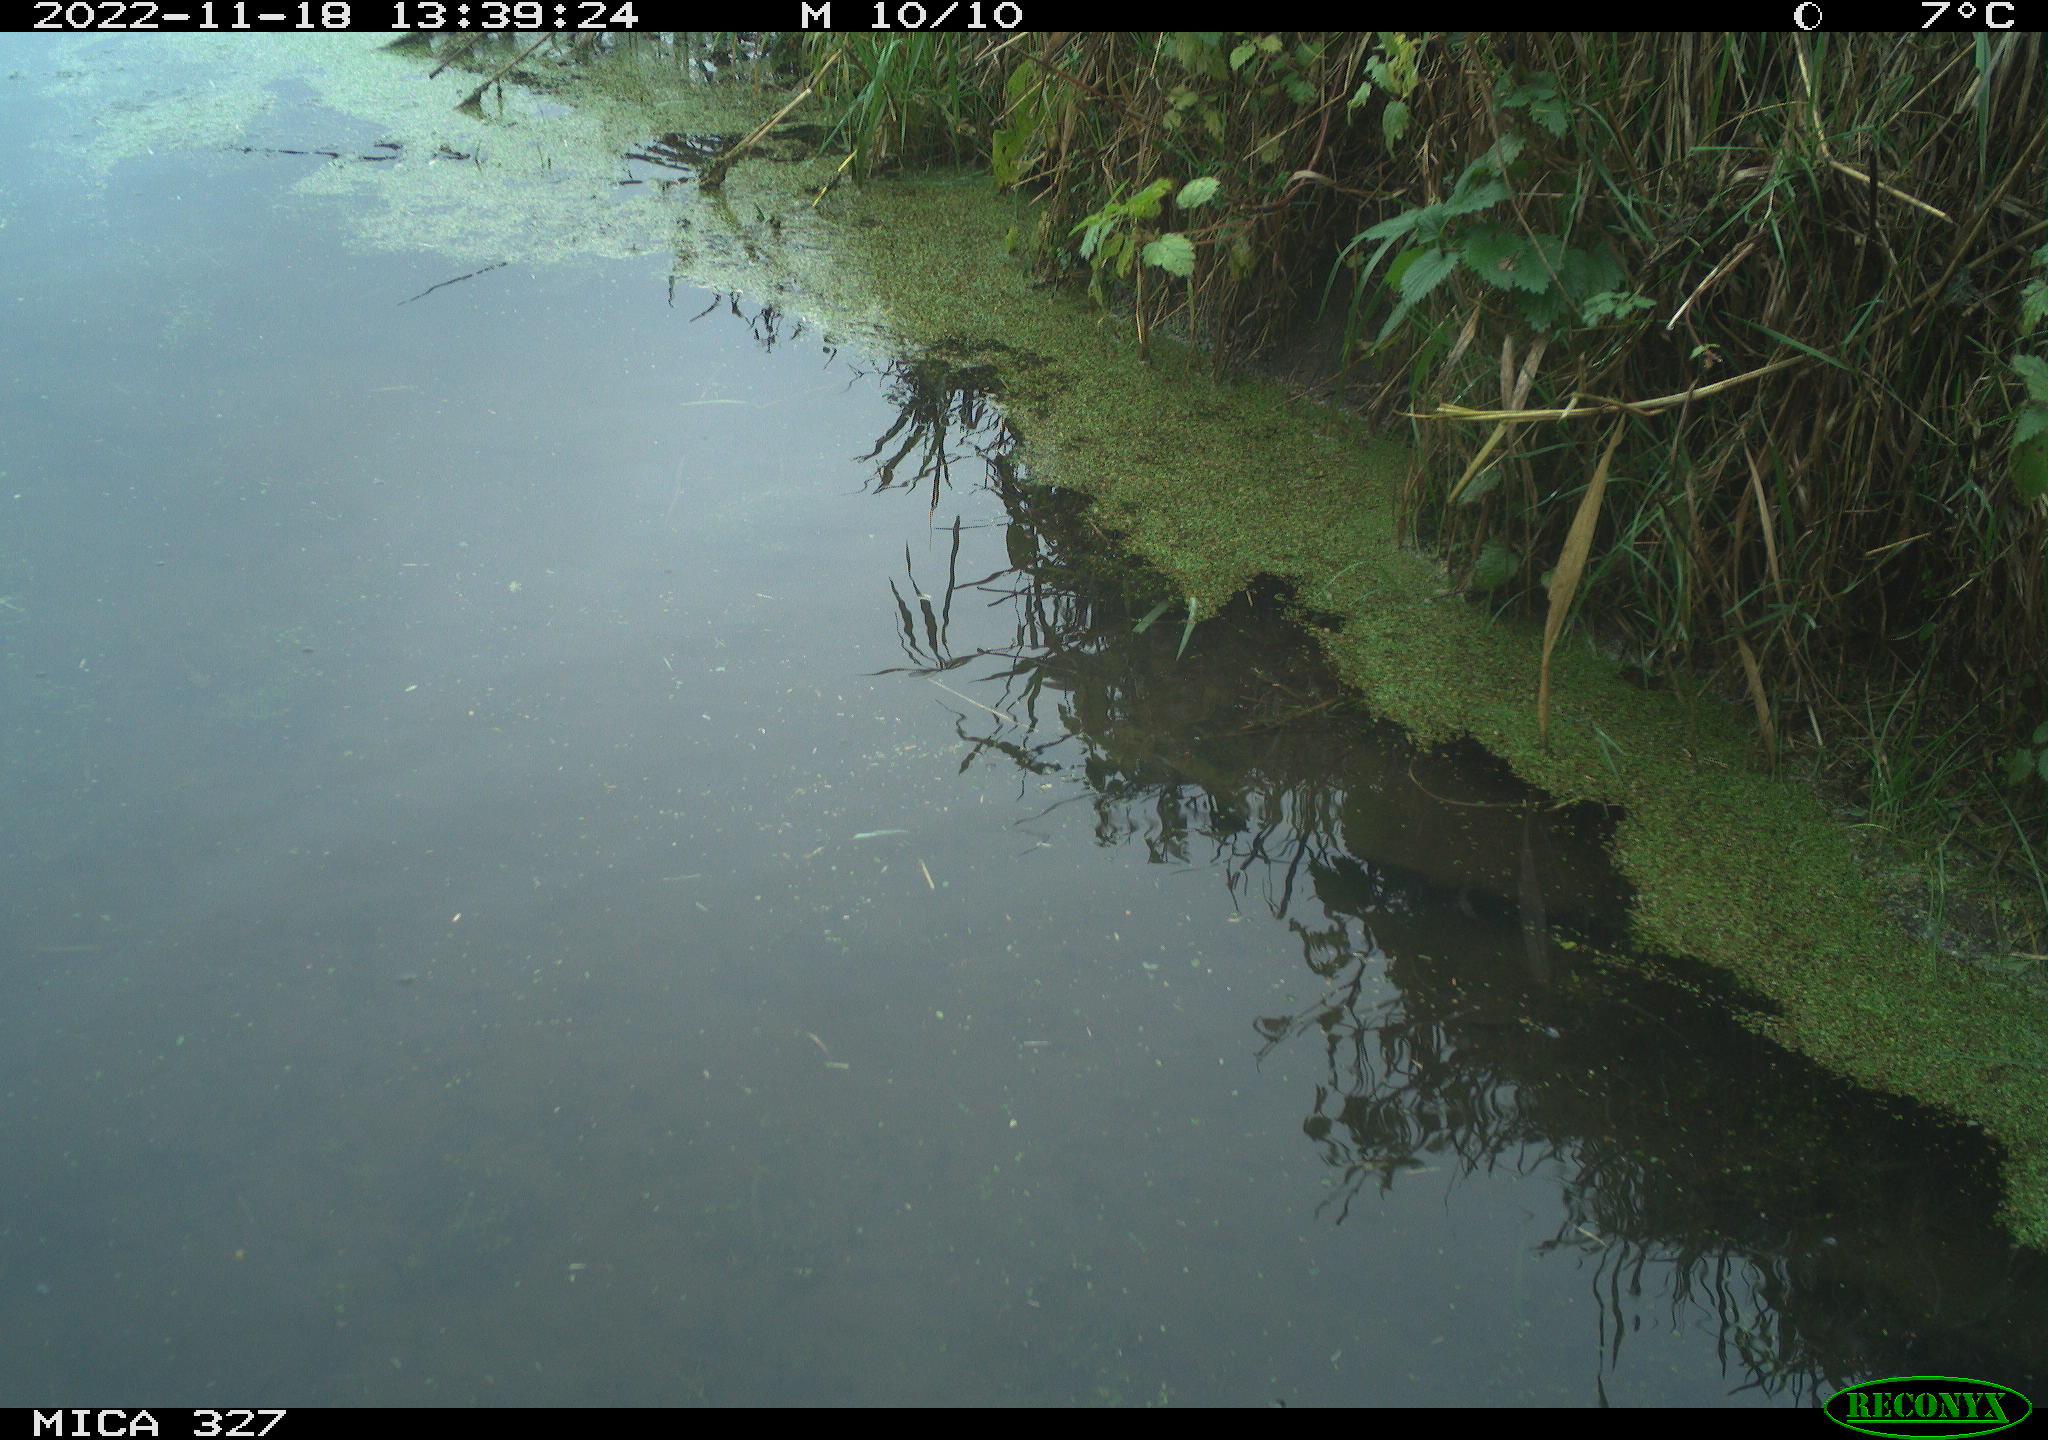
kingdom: Animalia
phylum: Chordata
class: Aves
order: Gruiformes
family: Rallidae
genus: Gallinula
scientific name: Gallinula chloropus
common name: Common moorhen
